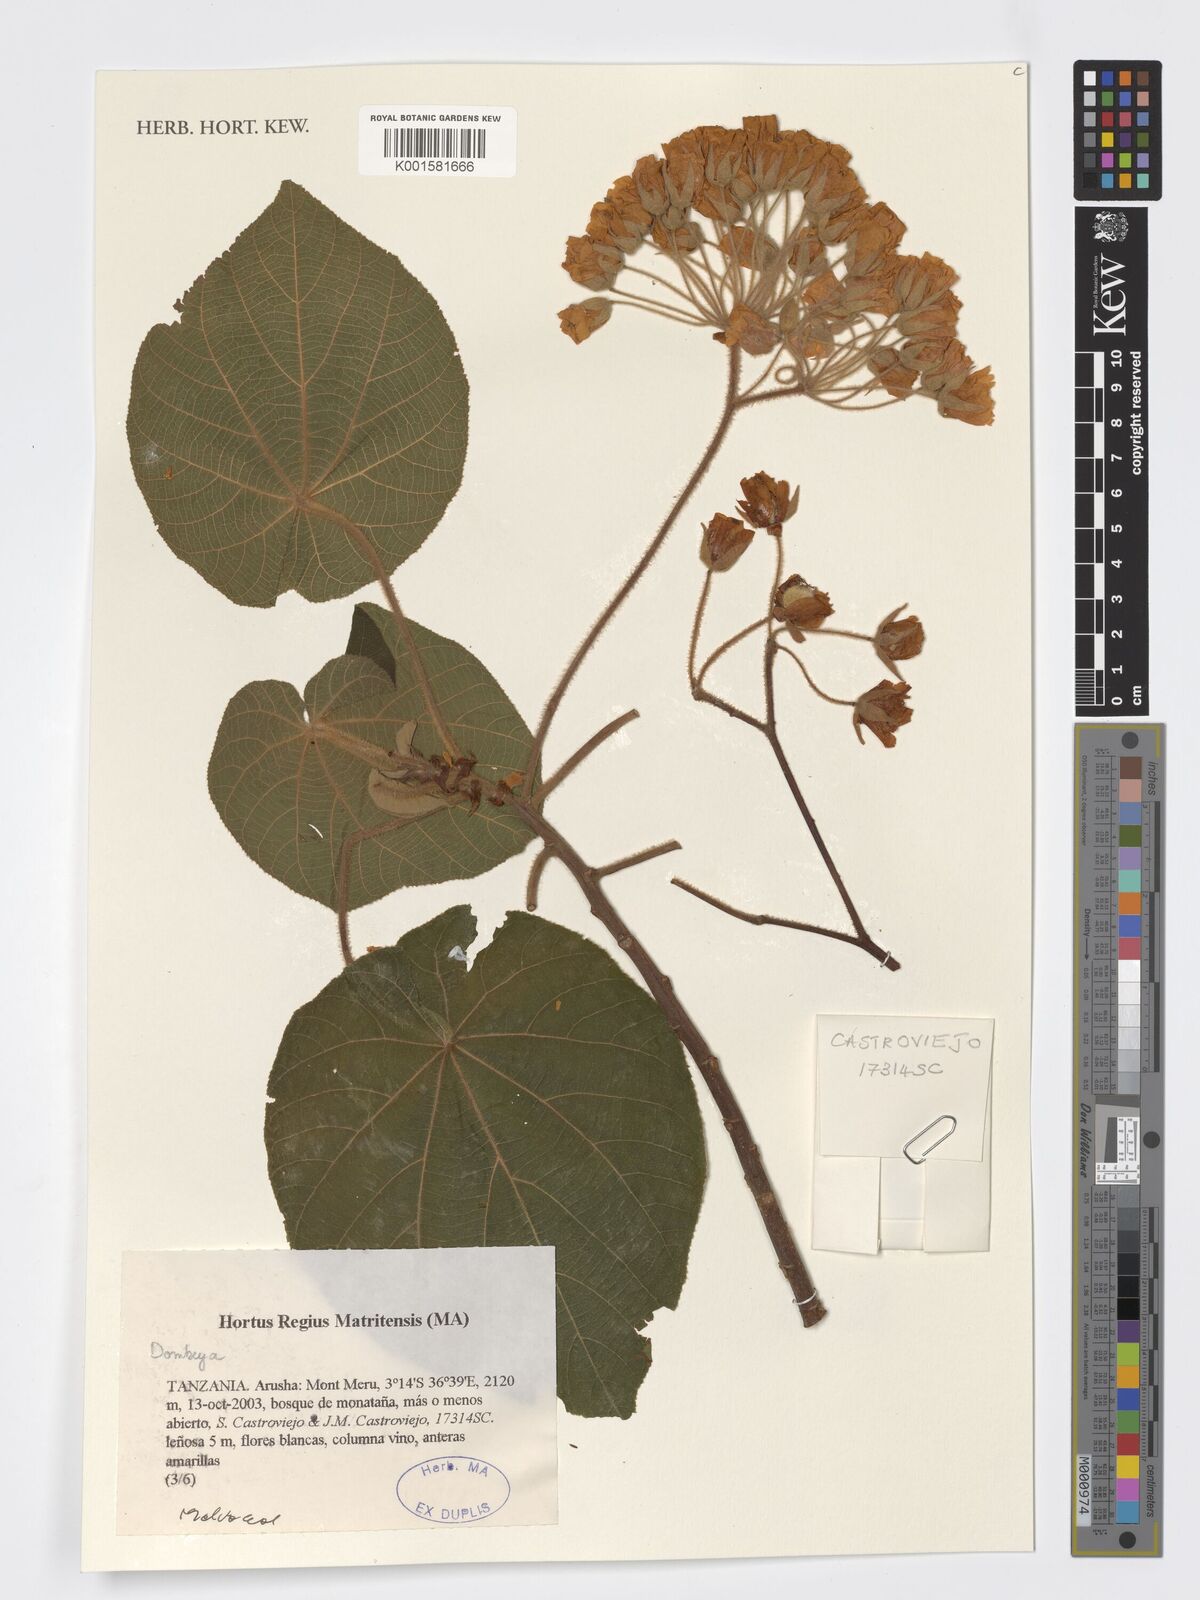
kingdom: Plantae
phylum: Tracheophyta
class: Magnoliopsida
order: Malvales
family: Malvaceae
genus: Dombeya
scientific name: Dombeya
